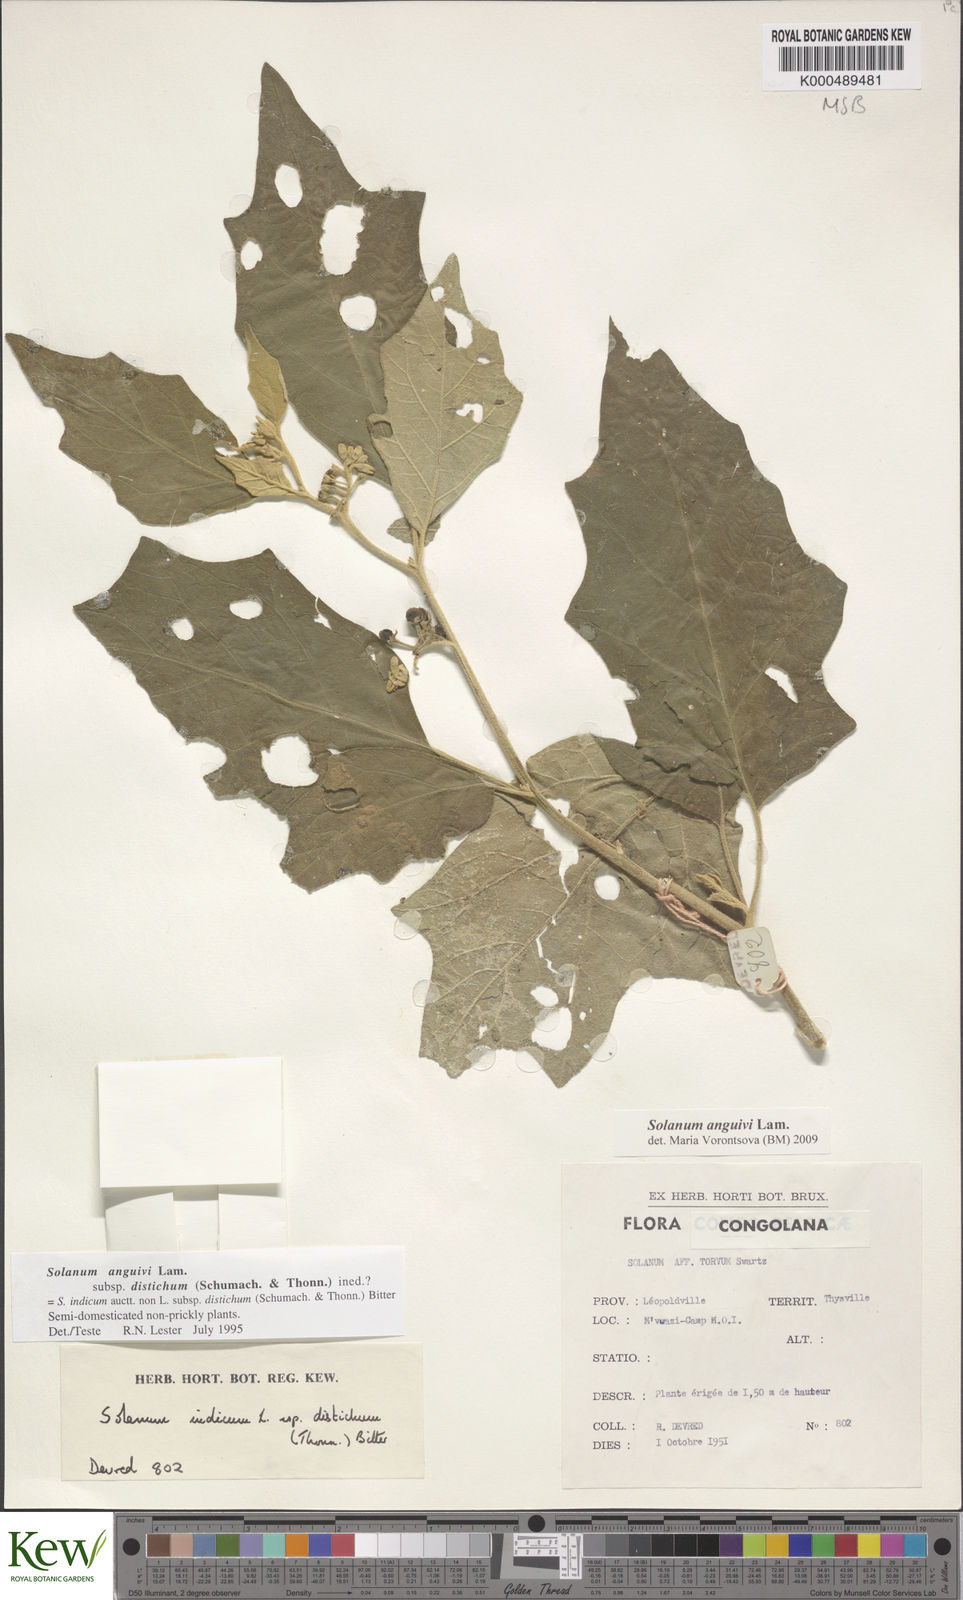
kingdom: Plantae
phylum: Tracheophyta
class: Magnoliopsida
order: Solanales
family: Solanaceae
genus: Solanum
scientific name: Solanum anguivi
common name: Forest bitterberry
